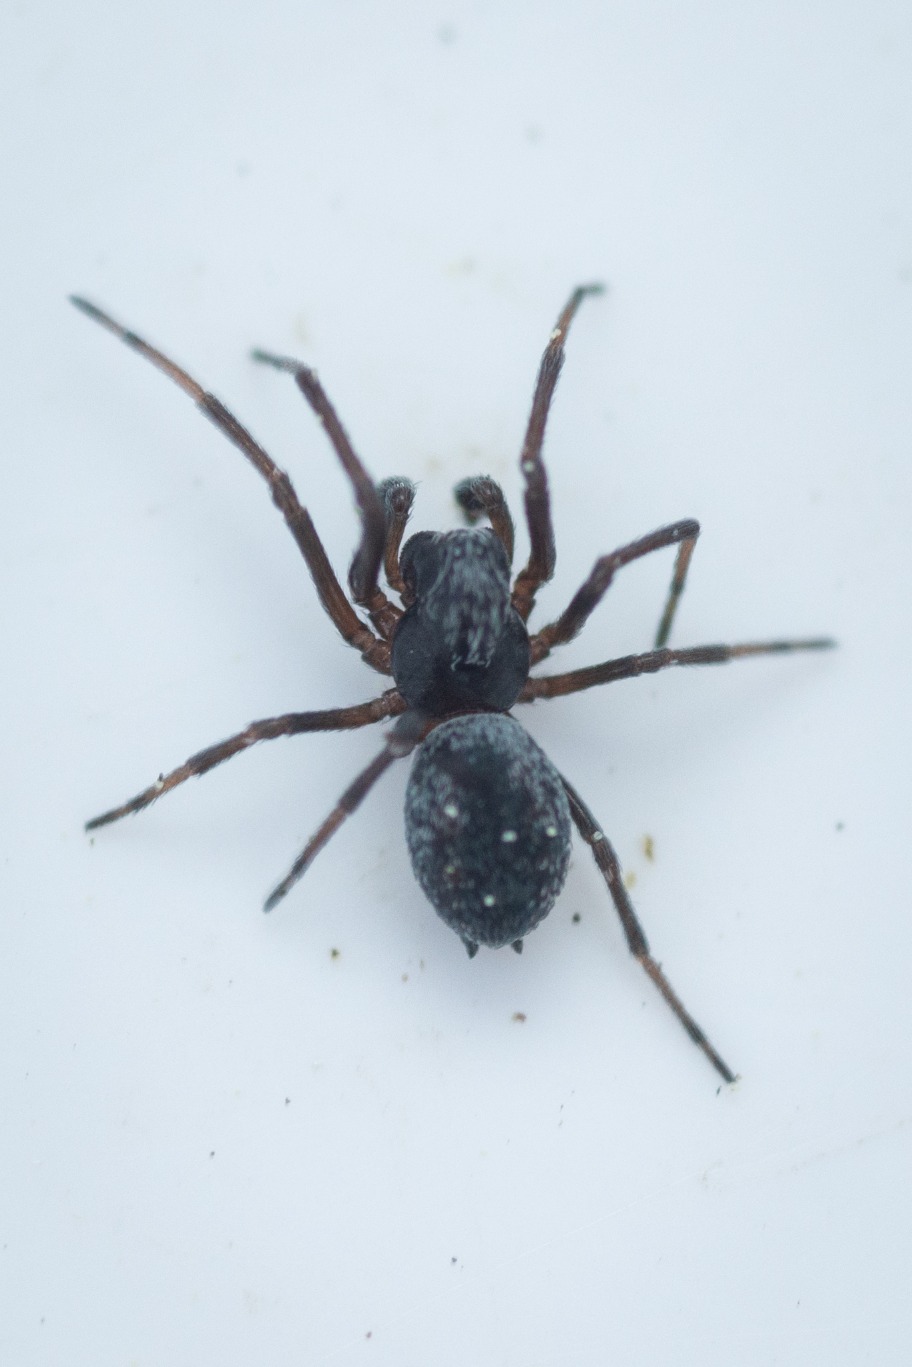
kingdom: Animalia
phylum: Arthropoda
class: Arachnida
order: Araneae
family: Dictynidae
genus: Brigittea
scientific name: Brigittea latens
